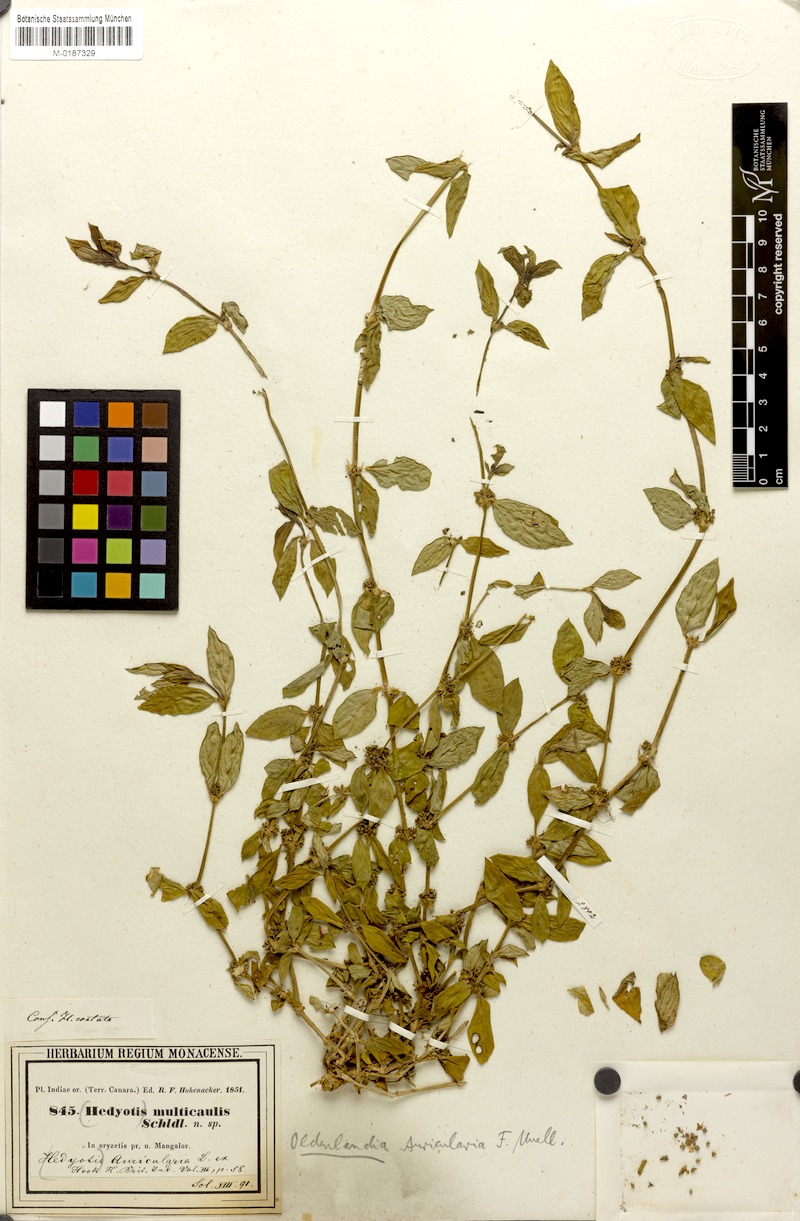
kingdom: Plantae
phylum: Tracheophyta
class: Magnoliopsida
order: Gentianales
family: Rubiaceae
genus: Exallage
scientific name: Exallage auricularia
